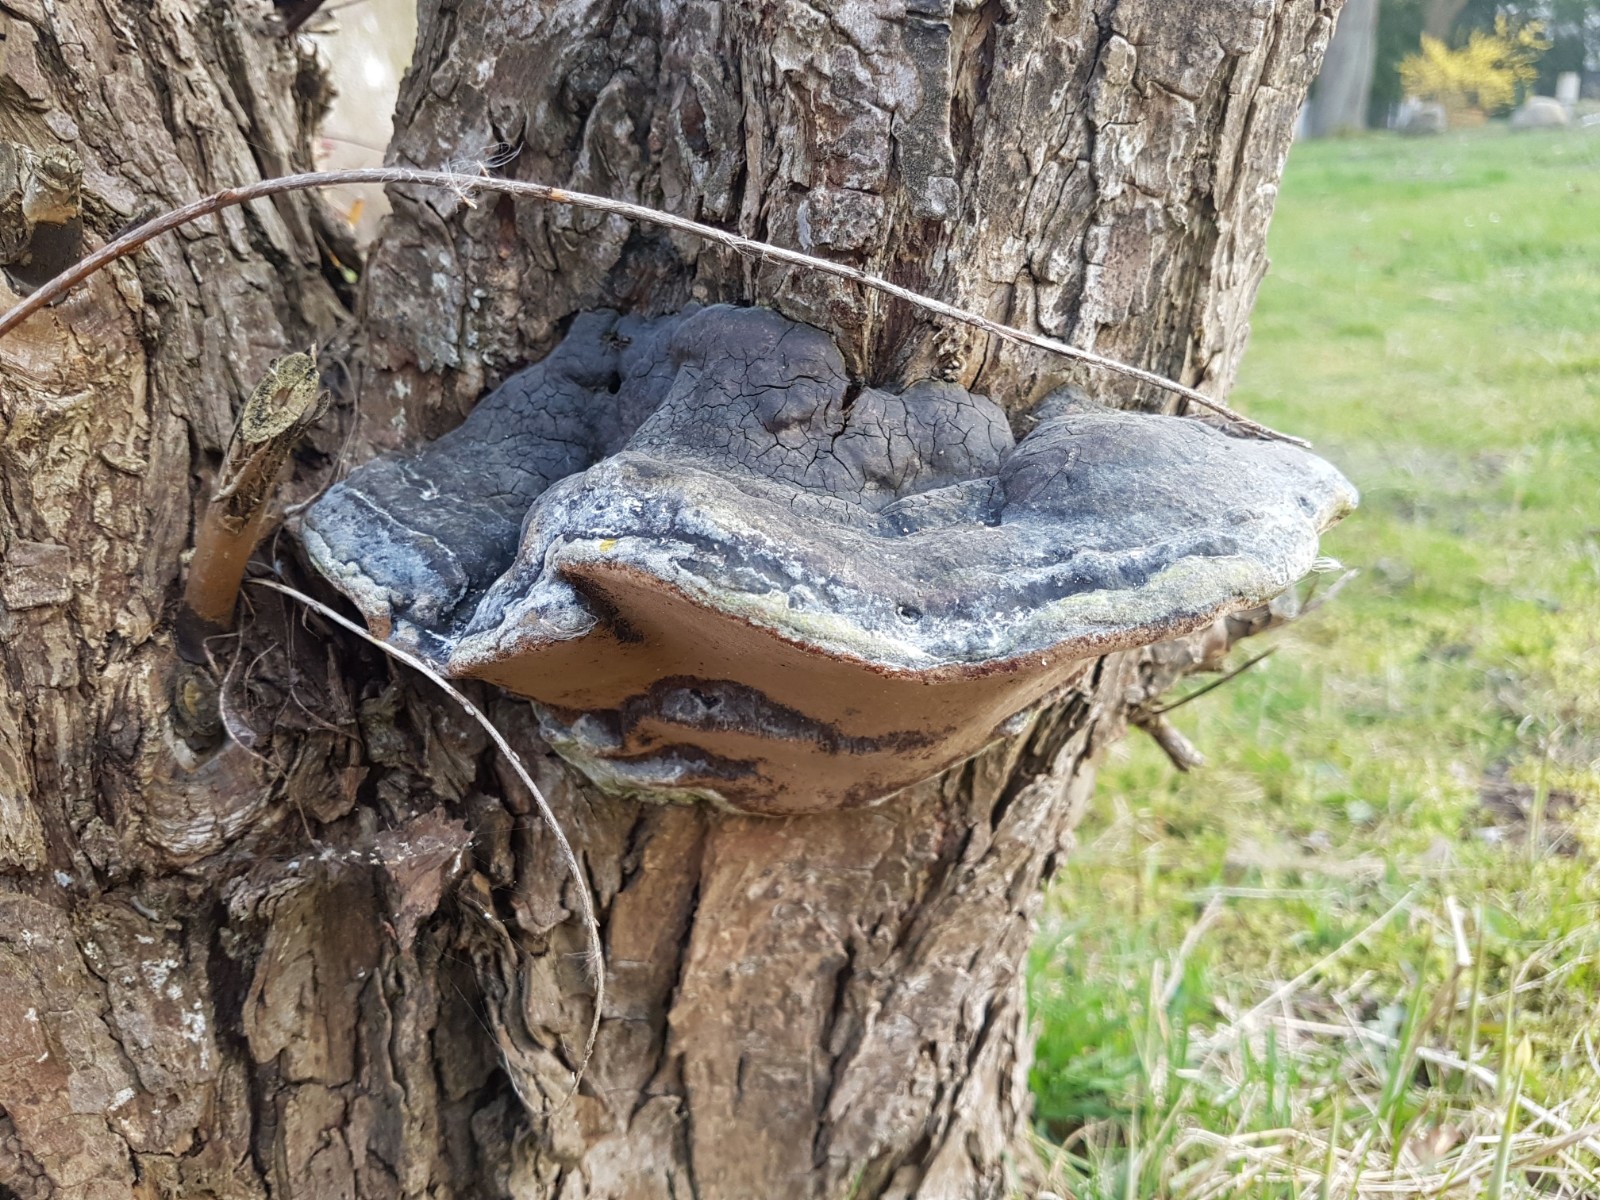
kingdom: Fungi
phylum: Basidiomycota
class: Agaricomycetes
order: Hymenochaetales
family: Hymenochaetaceae
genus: Phellinus
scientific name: Phellinus igniarius
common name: almindelig ildporesvamp
